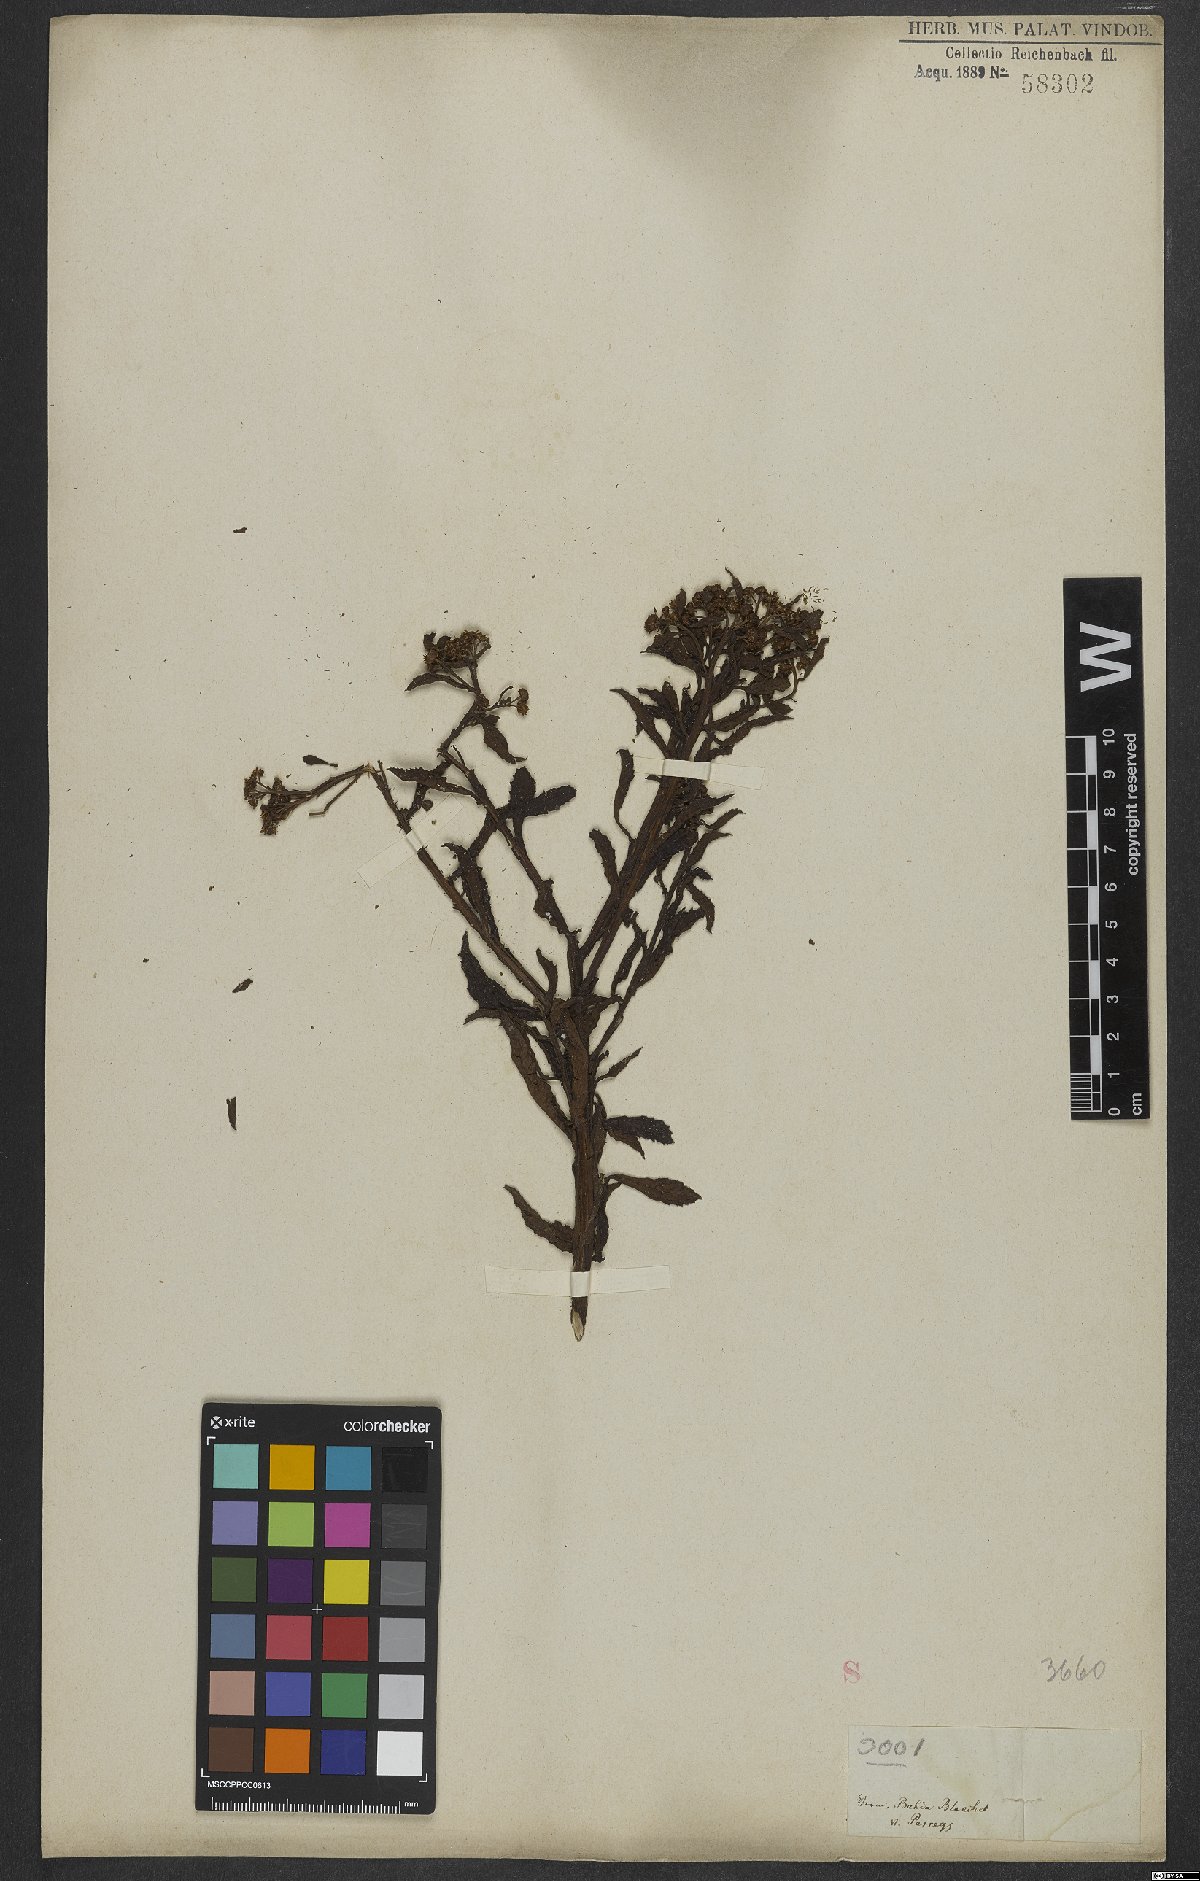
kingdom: Plantae
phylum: Tracheophyta
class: Magnoliopsida
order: Asterales
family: Asteraceae
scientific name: Asteraceae
